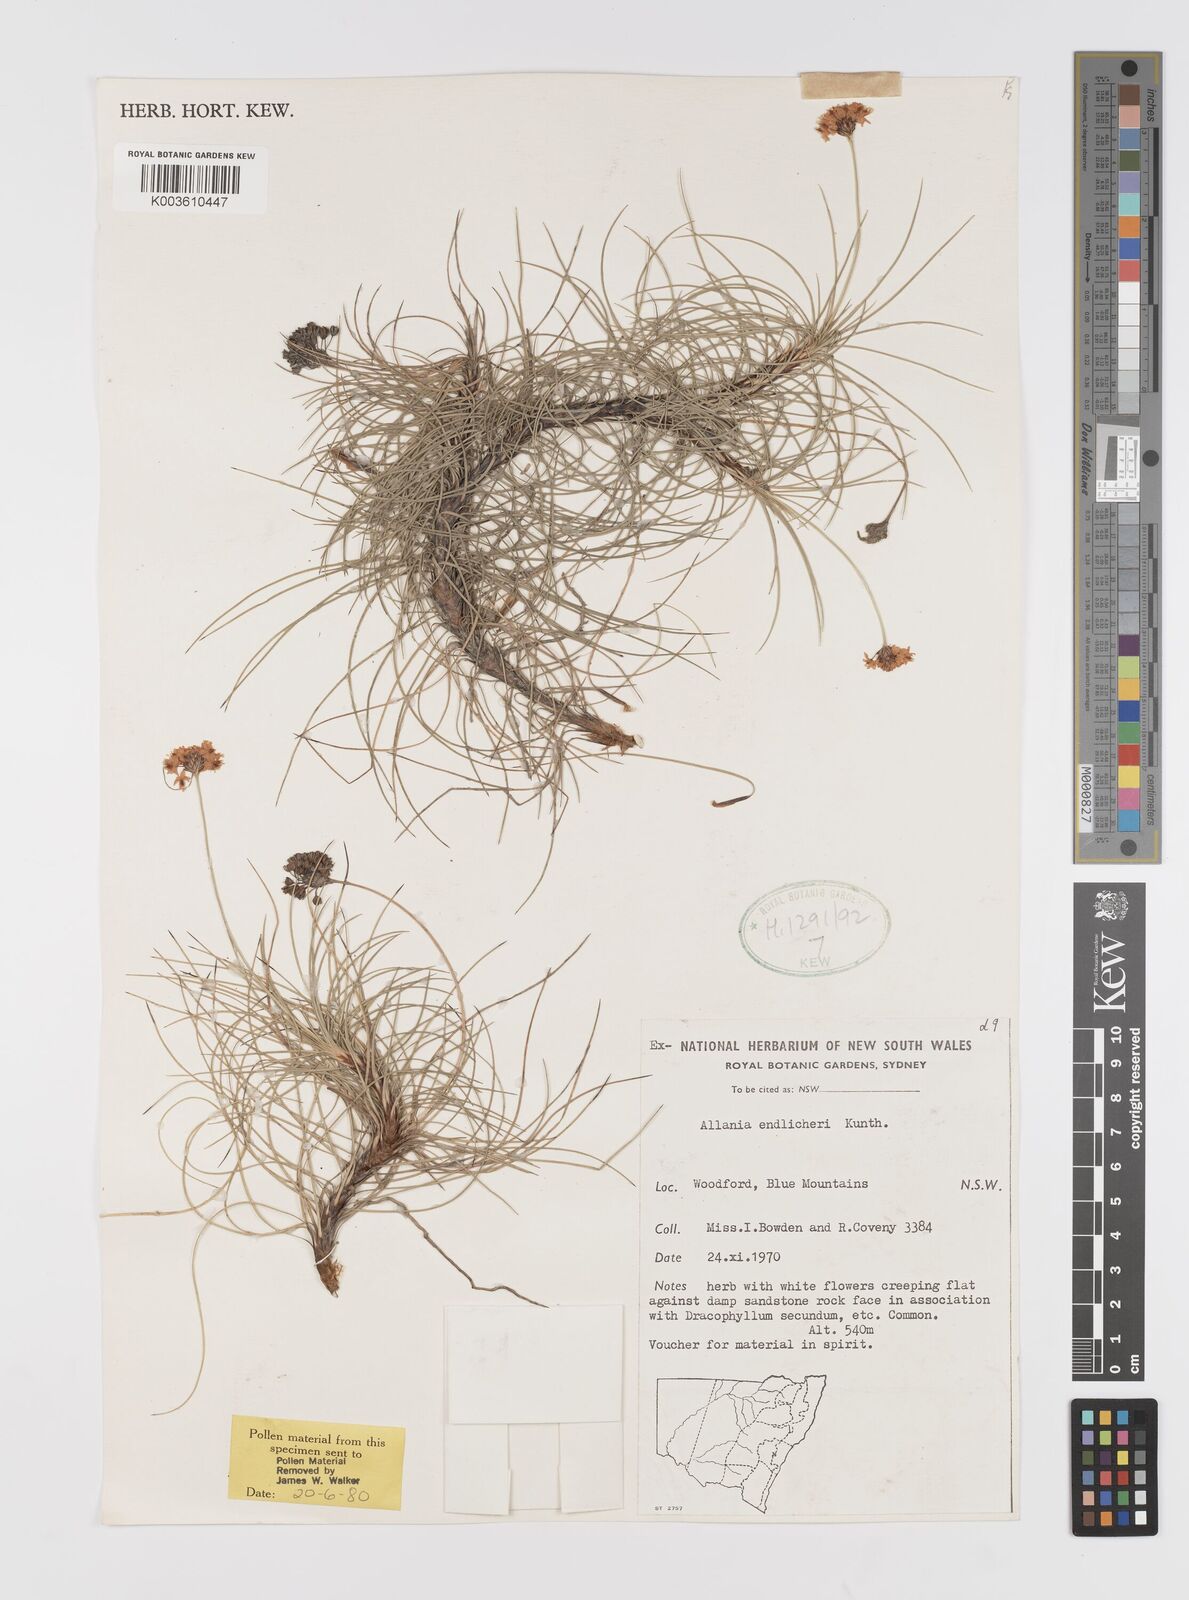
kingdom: Plantae
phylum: Tracheophyta
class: Liliopsida
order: Asparagales
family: Boryaceae
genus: Alania
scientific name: Alania cunninghamii
